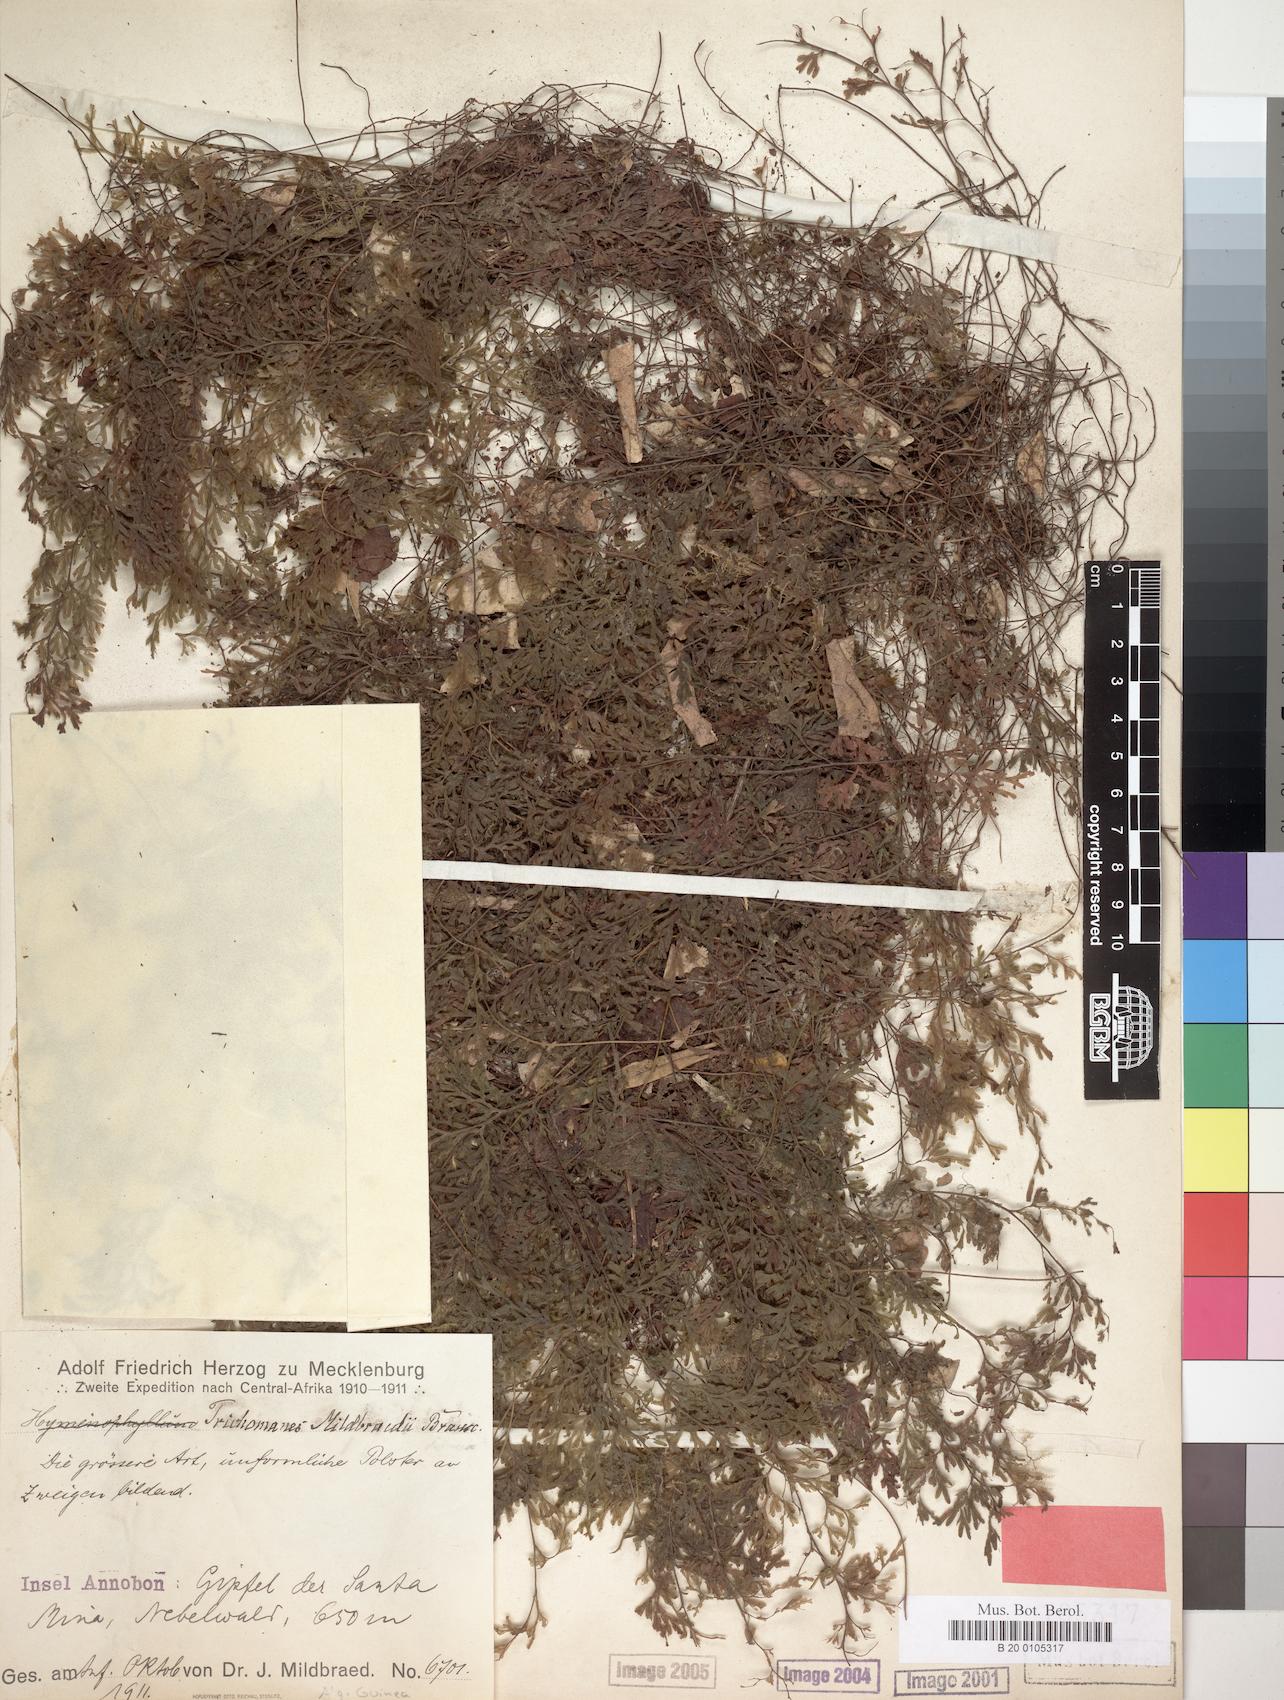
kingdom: Plantae
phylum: Tracheophyta
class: Polypodiopsida
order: Hymenophyllales
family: Hymenophyllaceae
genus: Hymenophyllum
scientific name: Hymenophyllum kuhnii
